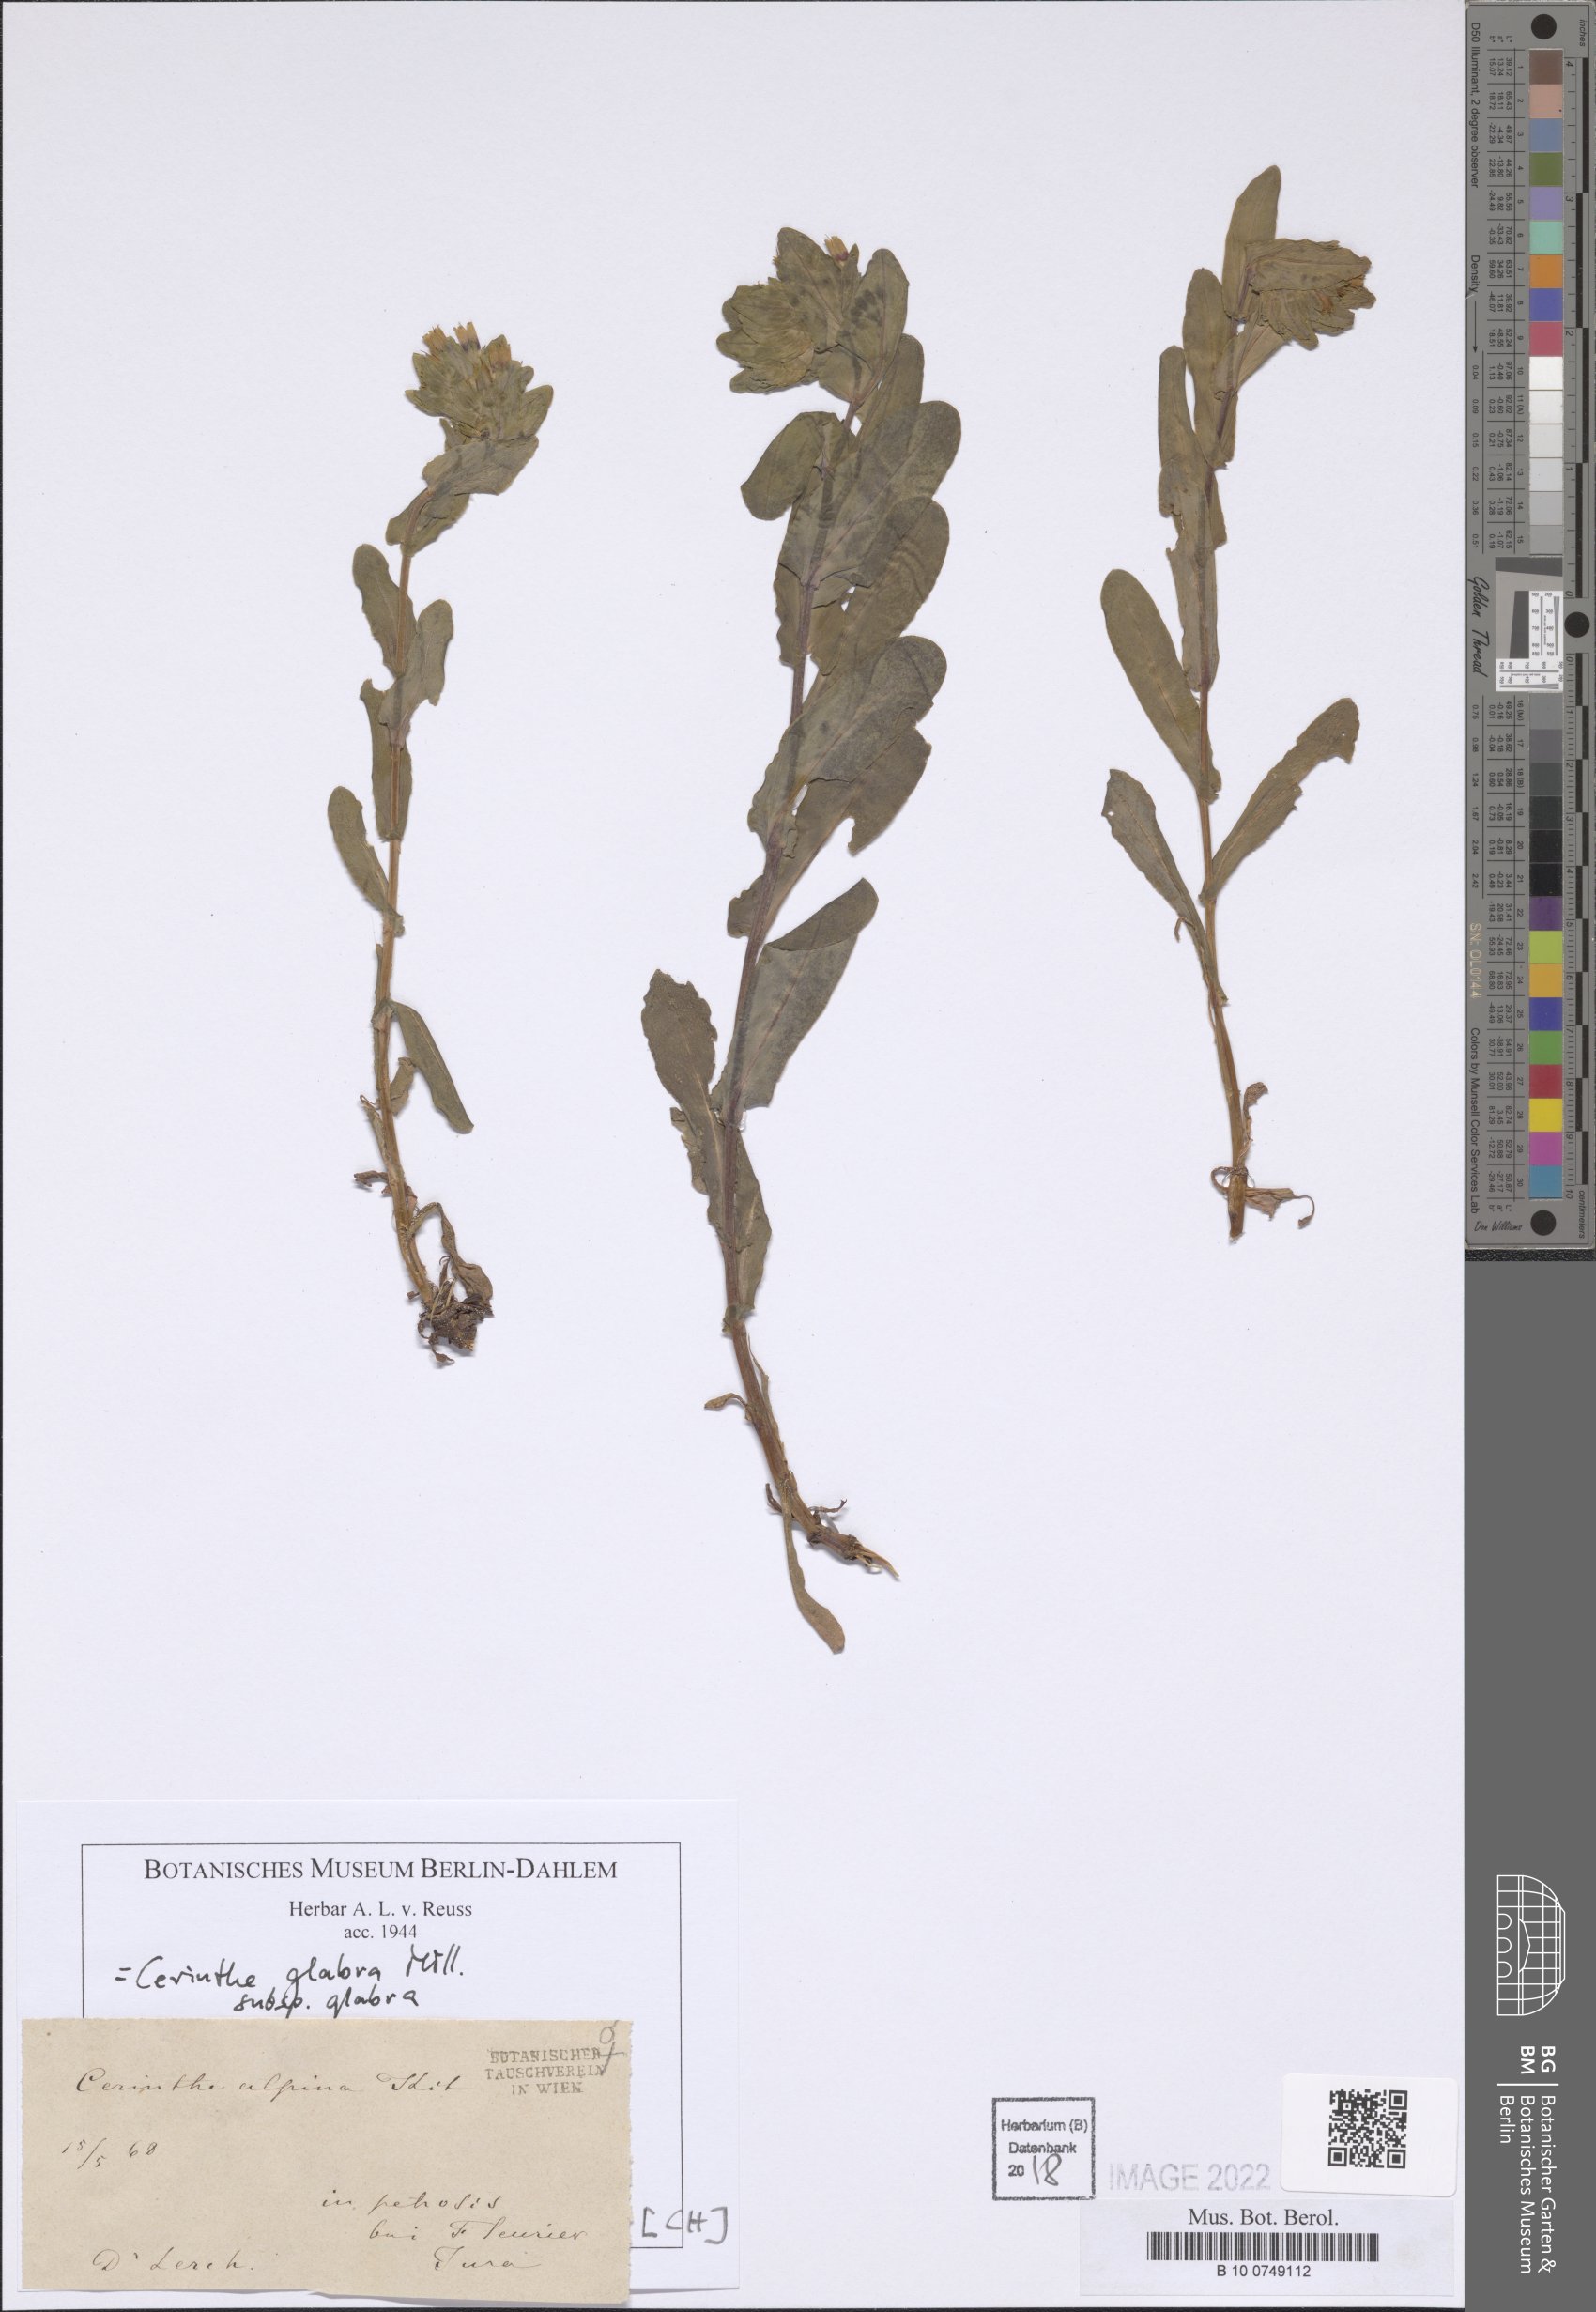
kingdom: Plantae
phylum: Tracheophyta
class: Magnoliopsida
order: Boraginales
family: Boraginaceae
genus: Cerinthe
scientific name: Cerinthe glabra
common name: Smooth honeywort
